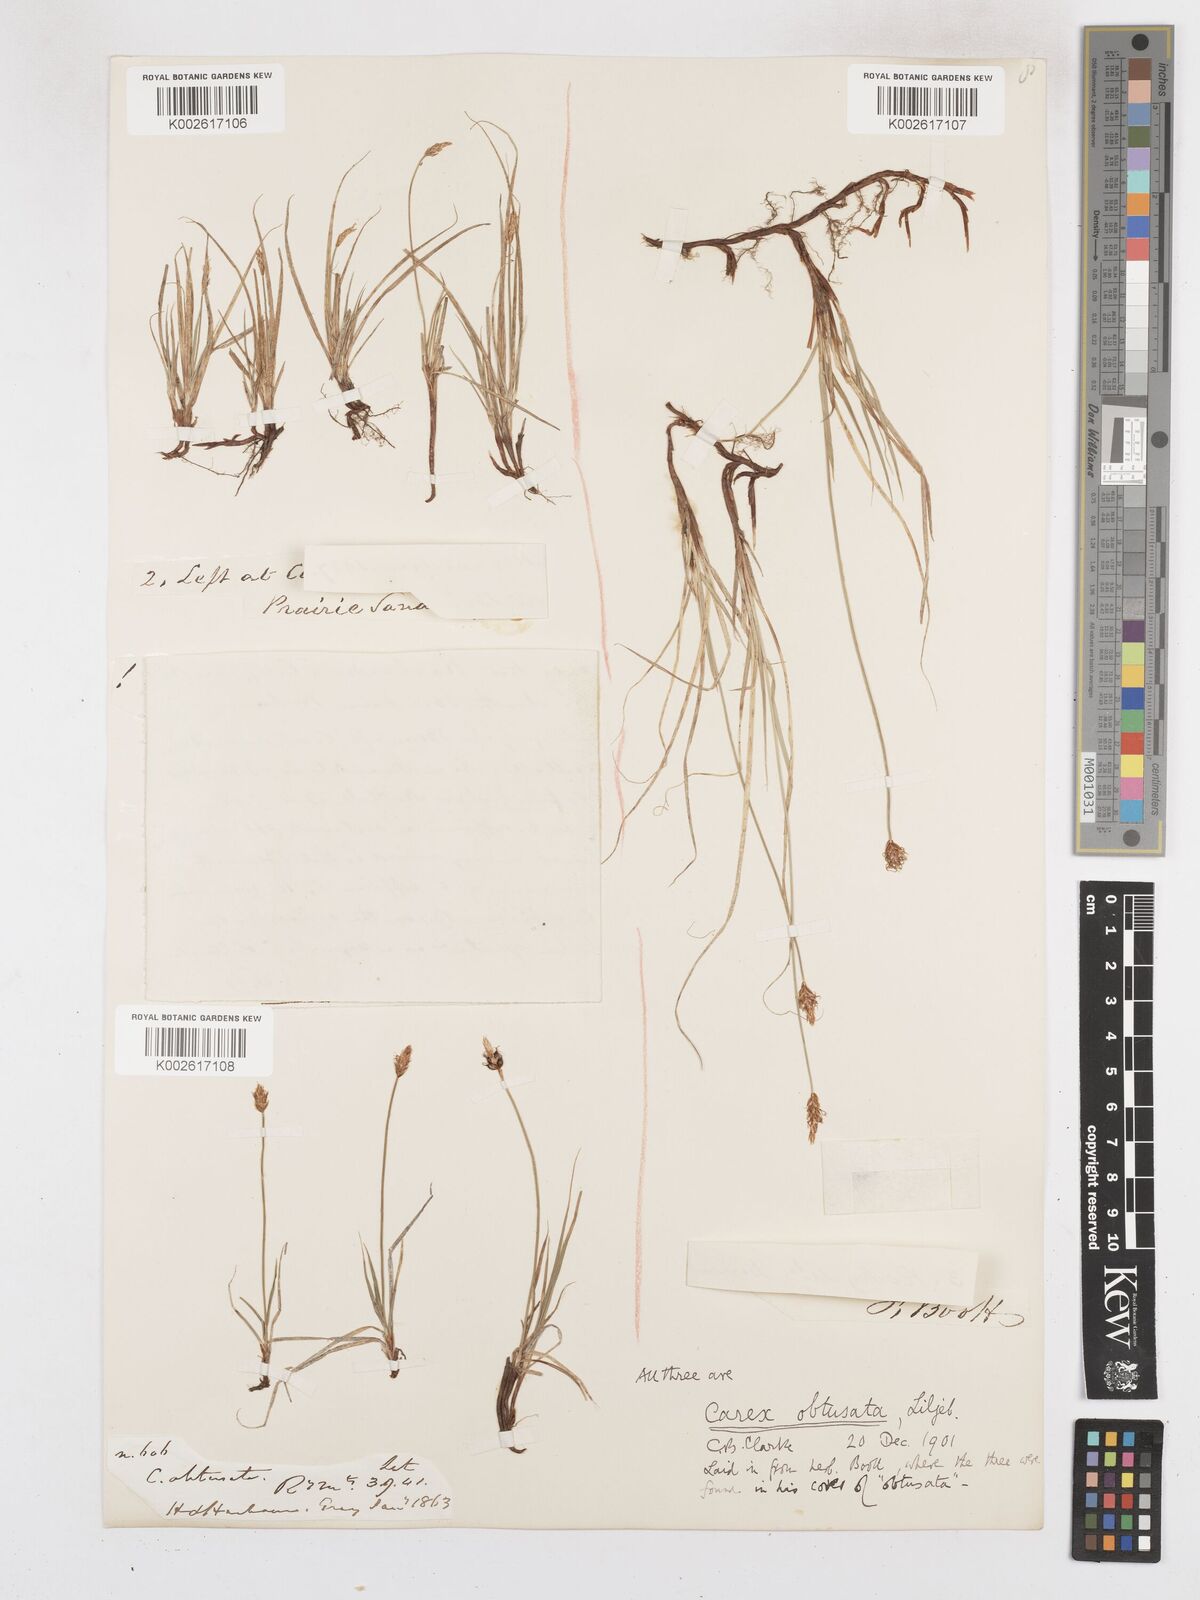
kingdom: Plantae
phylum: Tracheophyta
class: Liliopsida
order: Poales
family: Cyperaceae
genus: Carex
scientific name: Carex obtusata
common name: Blunt sedge
